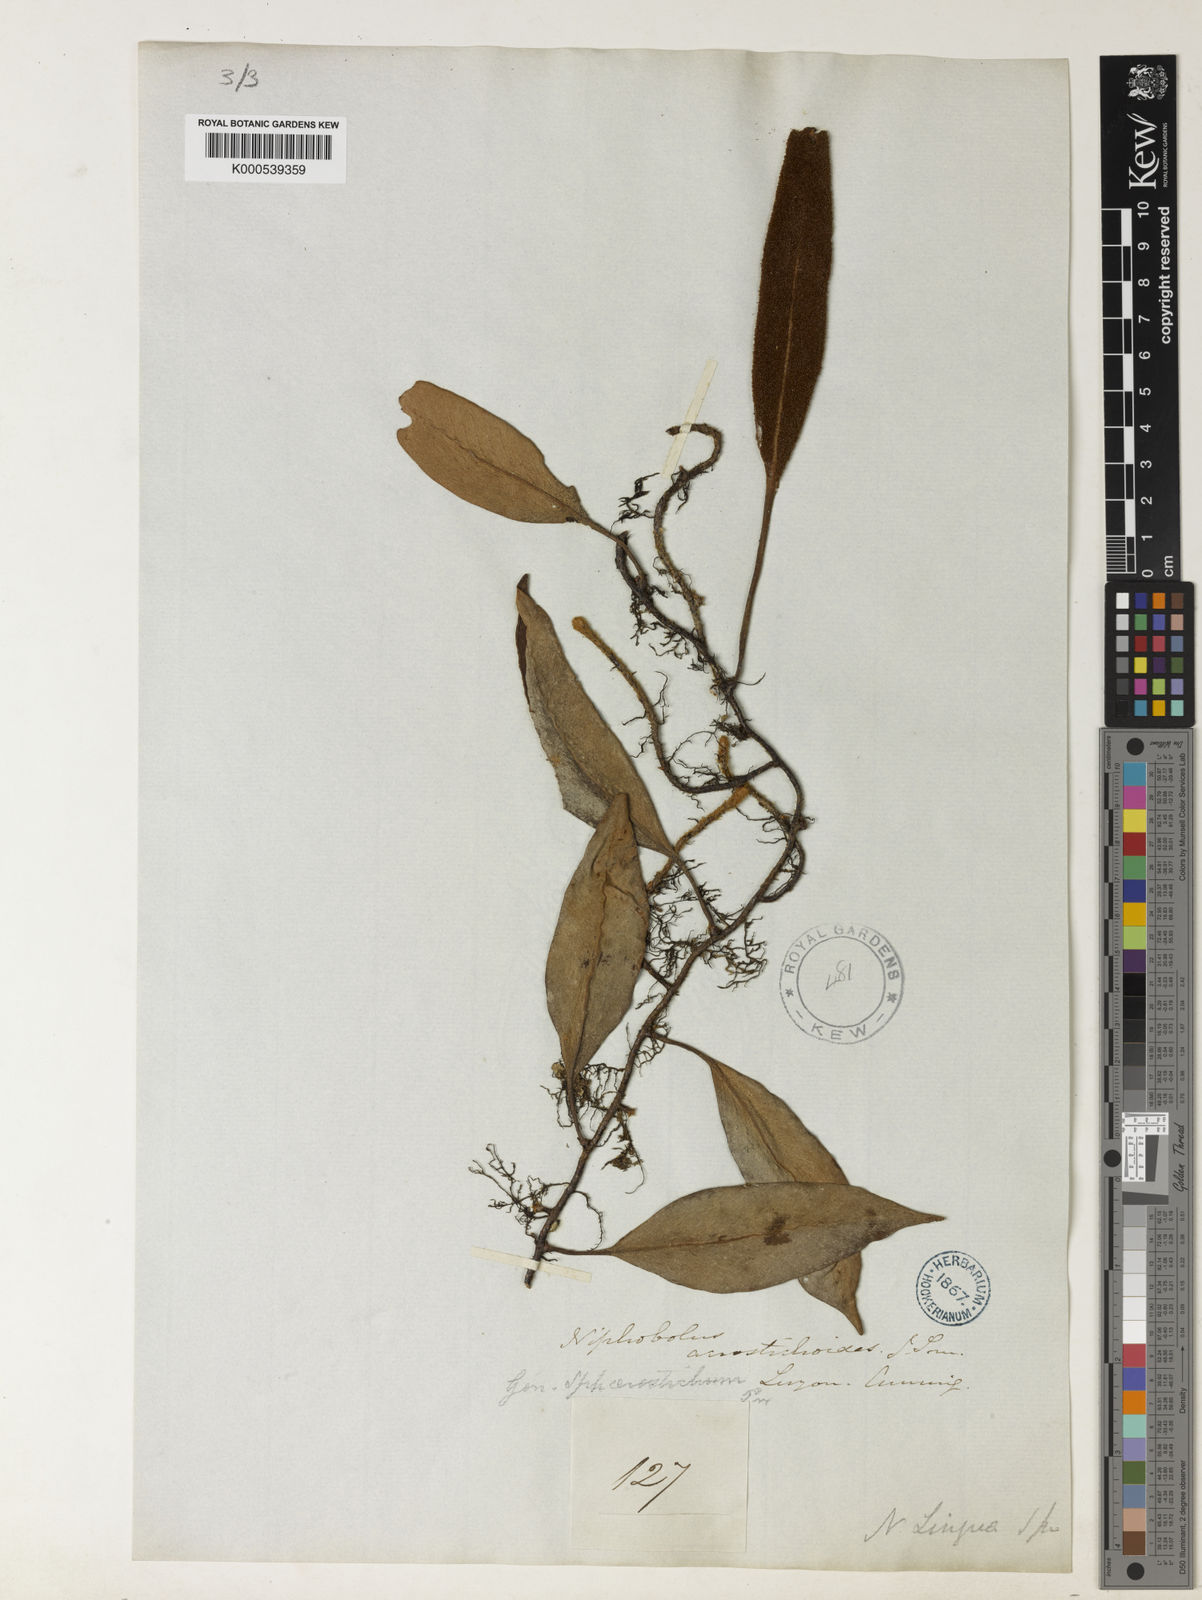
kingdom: Plantae
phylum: Tracheophyta
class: Polypodiopsida
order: Polypodiales
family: Polypodiaceae
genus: Pyrrosia
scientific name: Pyrrosia sphaerosticha
